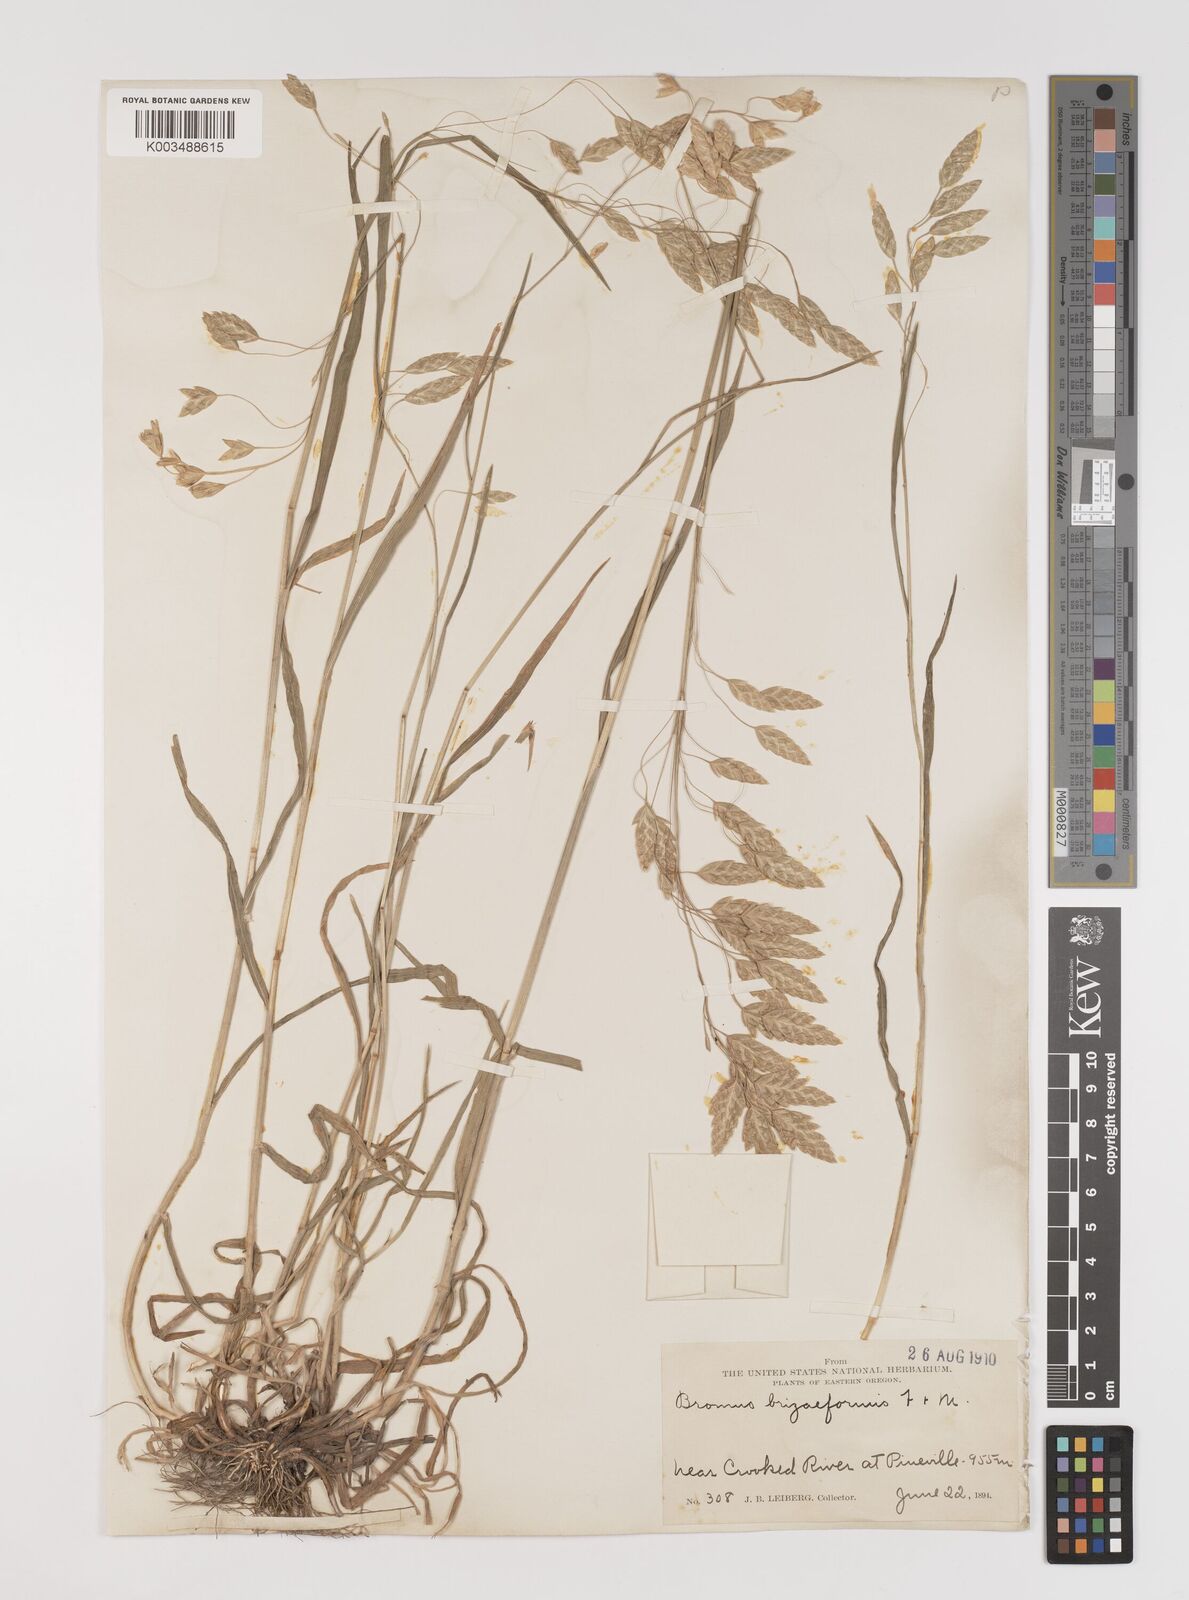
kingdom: Plantae
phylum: Tracheophyta
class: Liliopsida
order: Poales
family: Poaceae
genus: Bromus
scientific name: Bromus briziformis
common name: Rattlesnake brome
